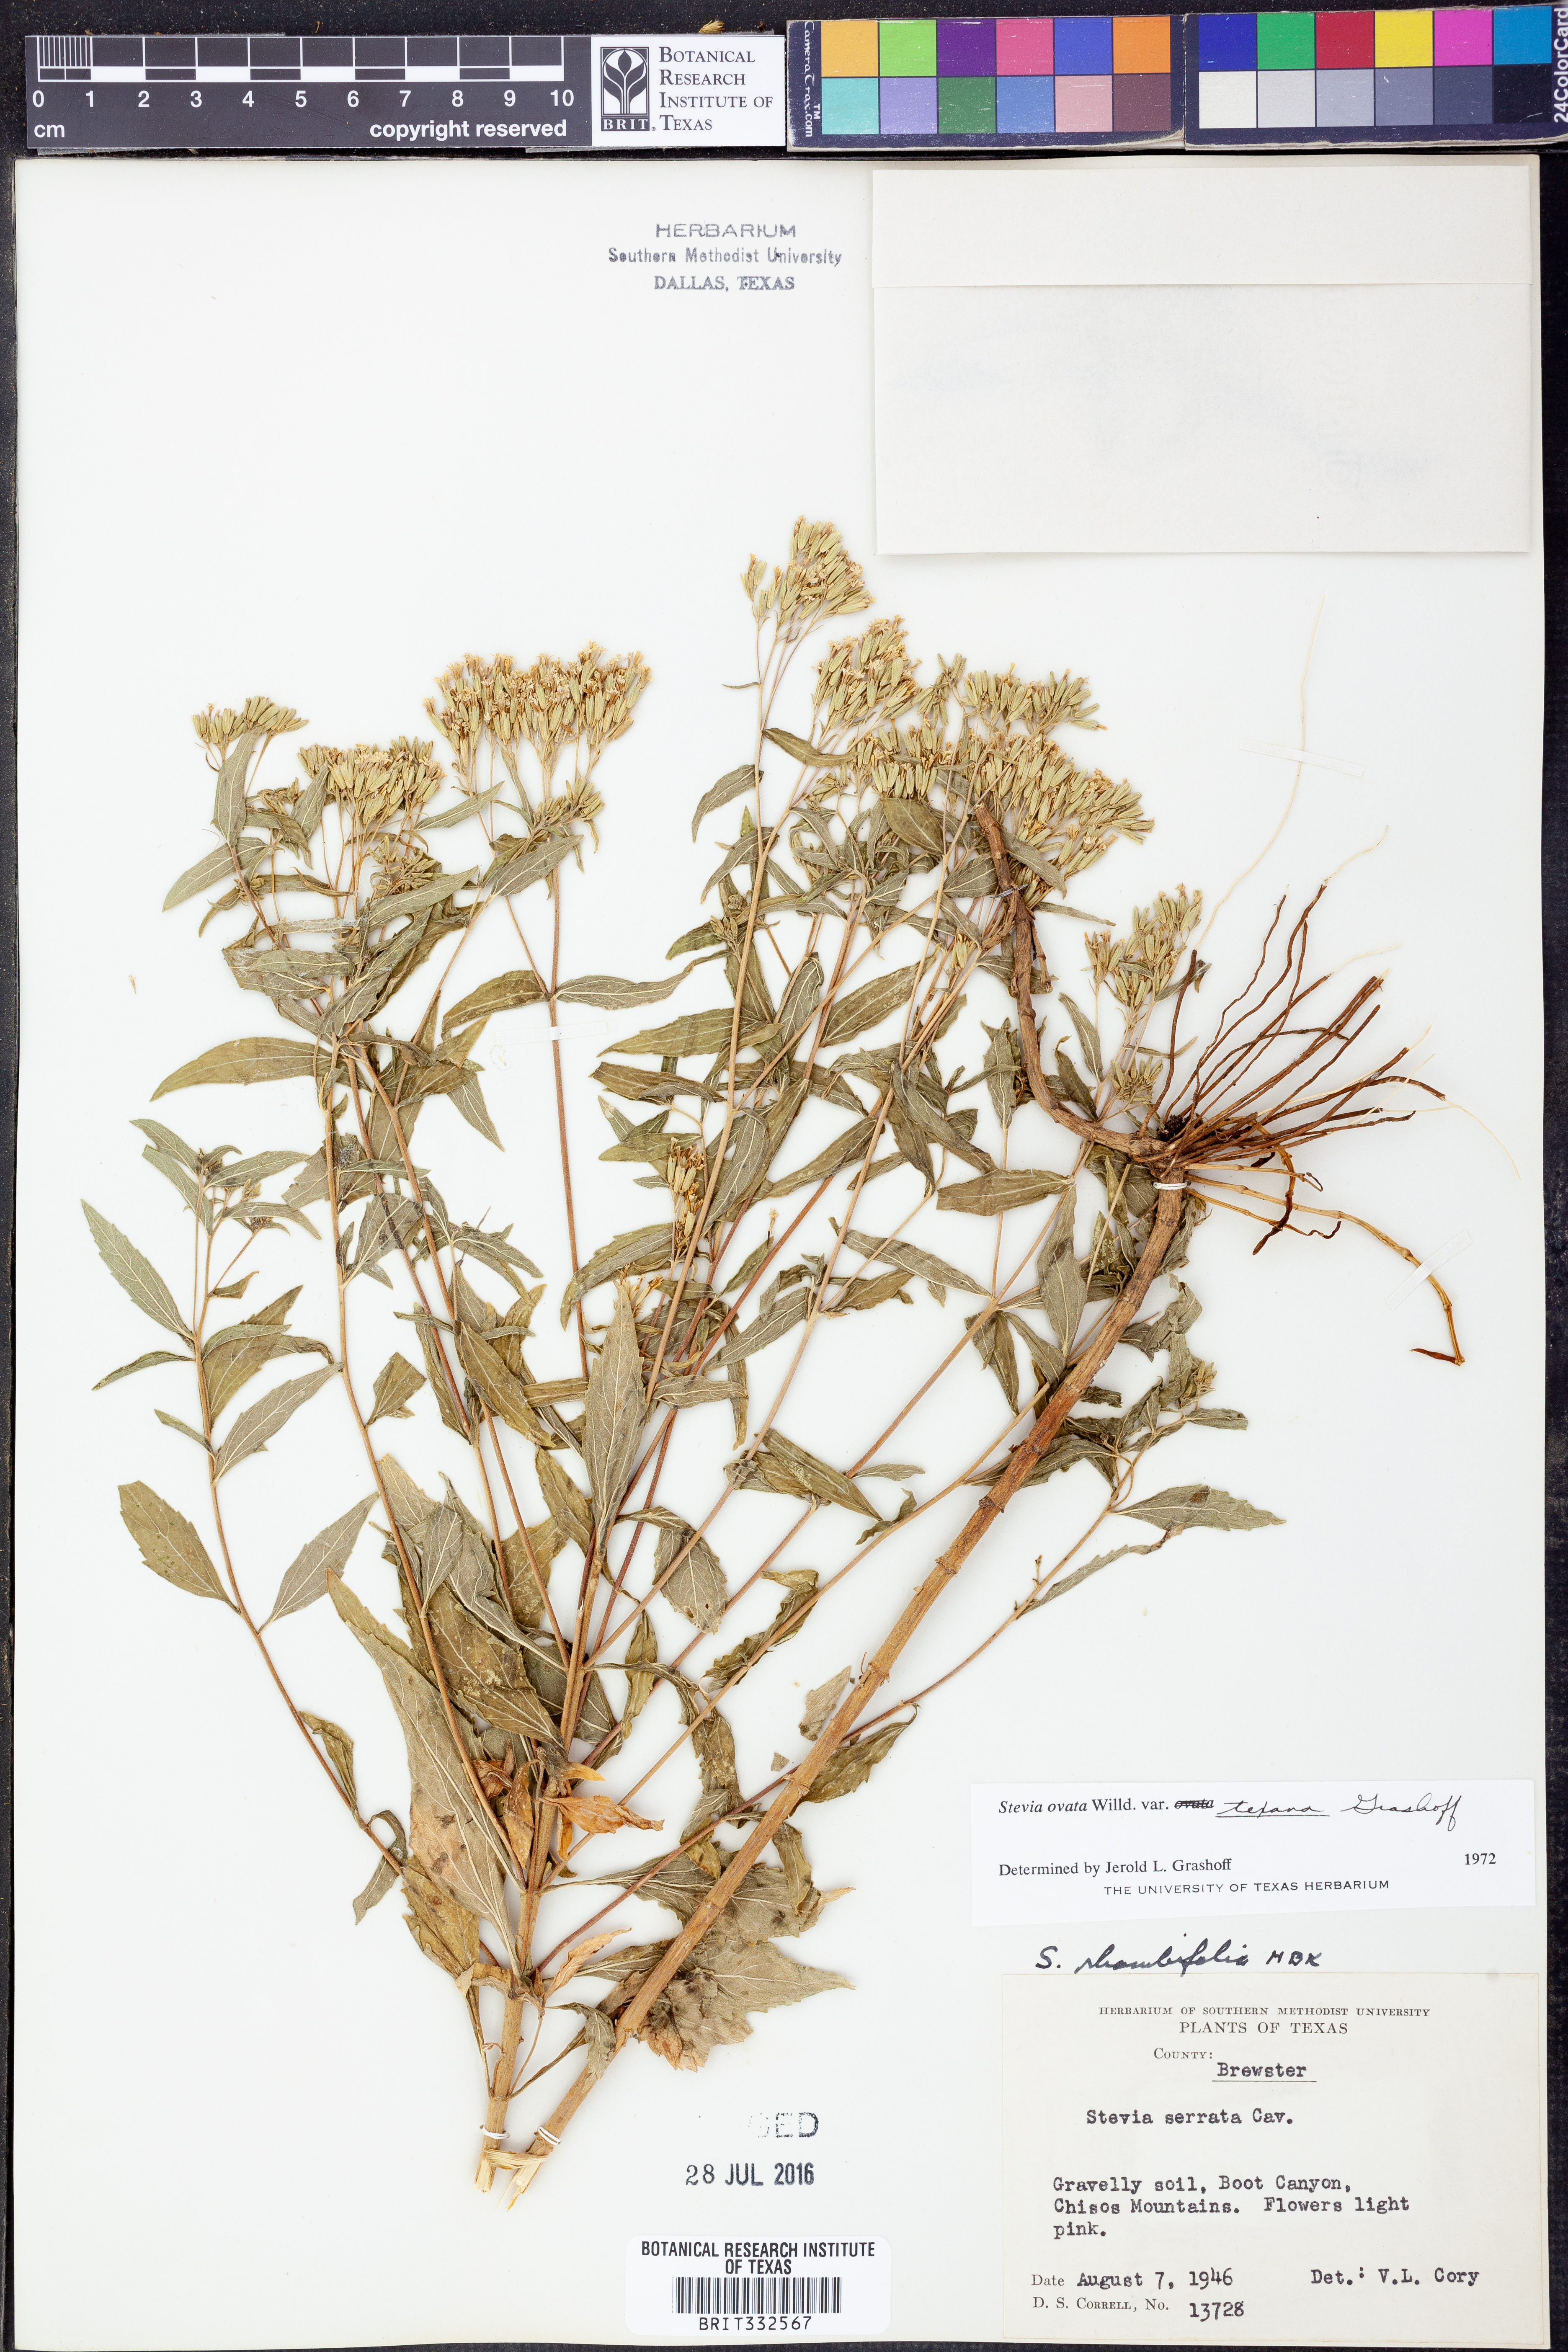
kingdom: Plantae
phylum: Tracheophyta
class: Magnoliopsida
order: Asterales
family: Asteraceae
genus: Stevia
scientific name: Stevia ovata
